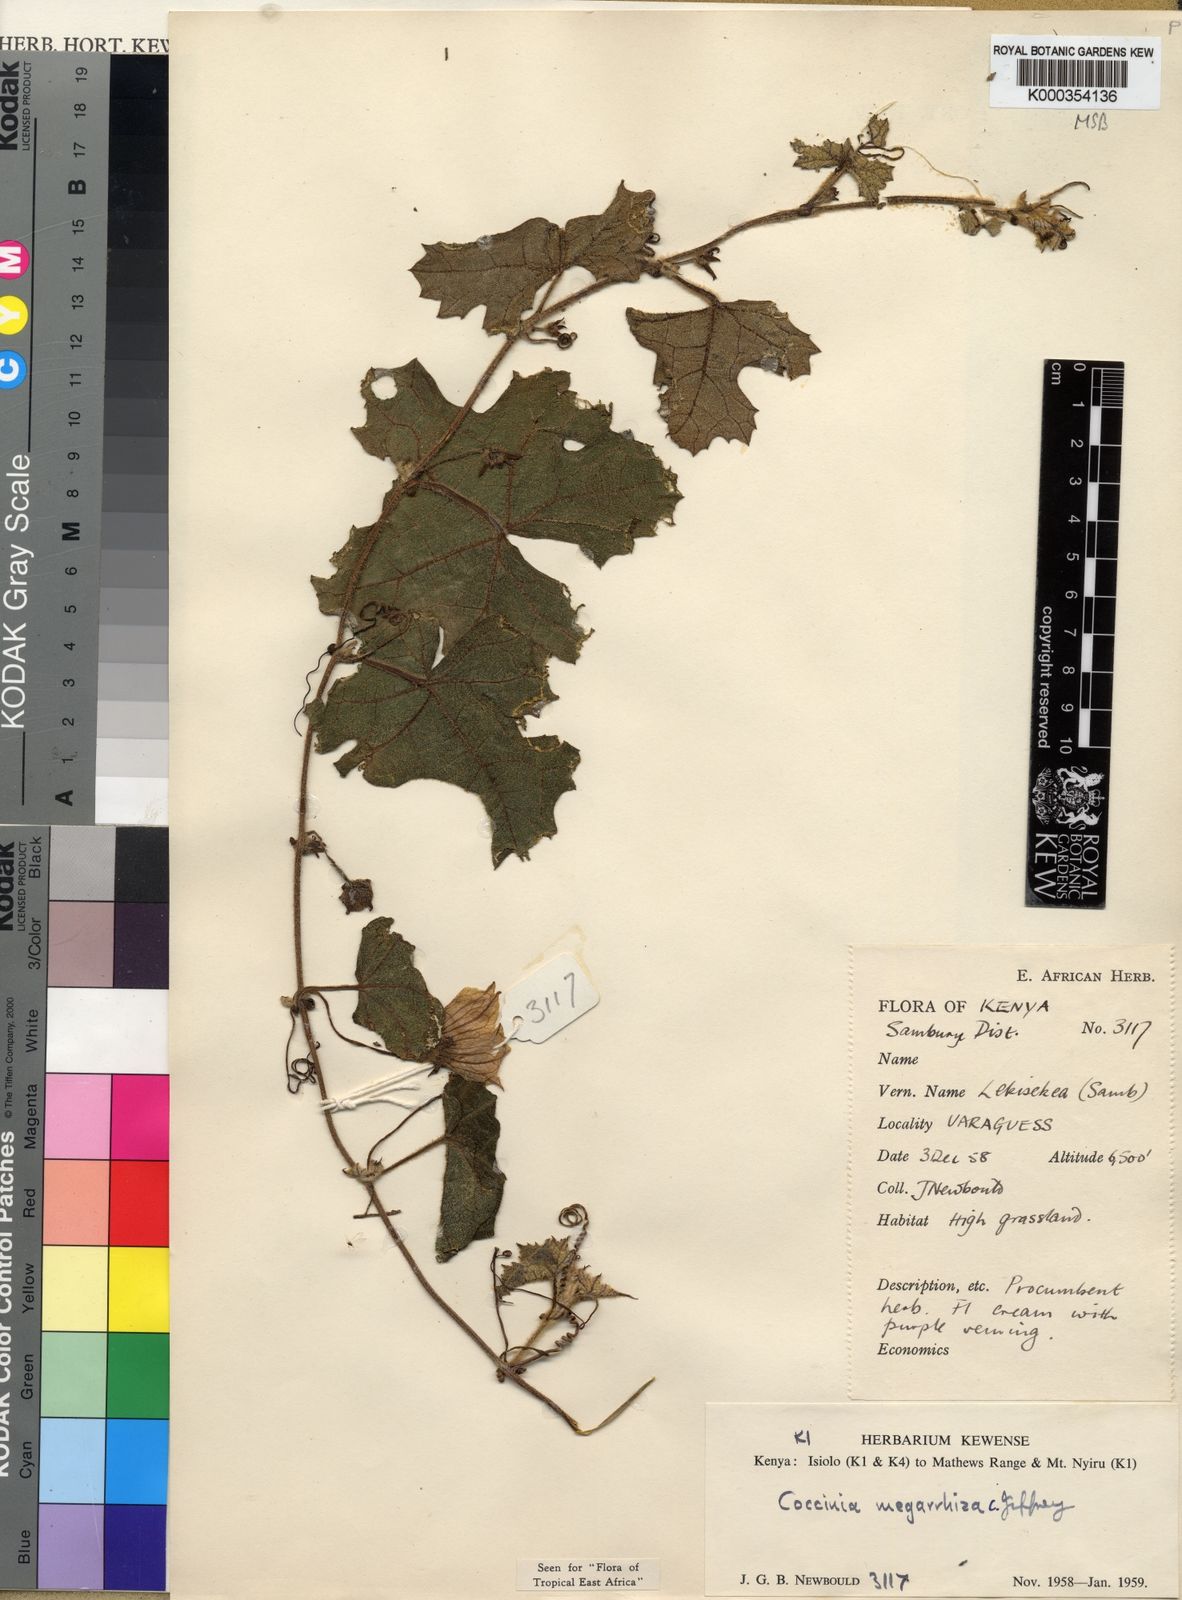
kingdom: Plantae
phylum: Tracheophyta
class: Magnoliopsida
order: Cucurbitales
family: Cucurbitaceae
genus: Coccinia
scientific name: Coccinia megarrhiza
